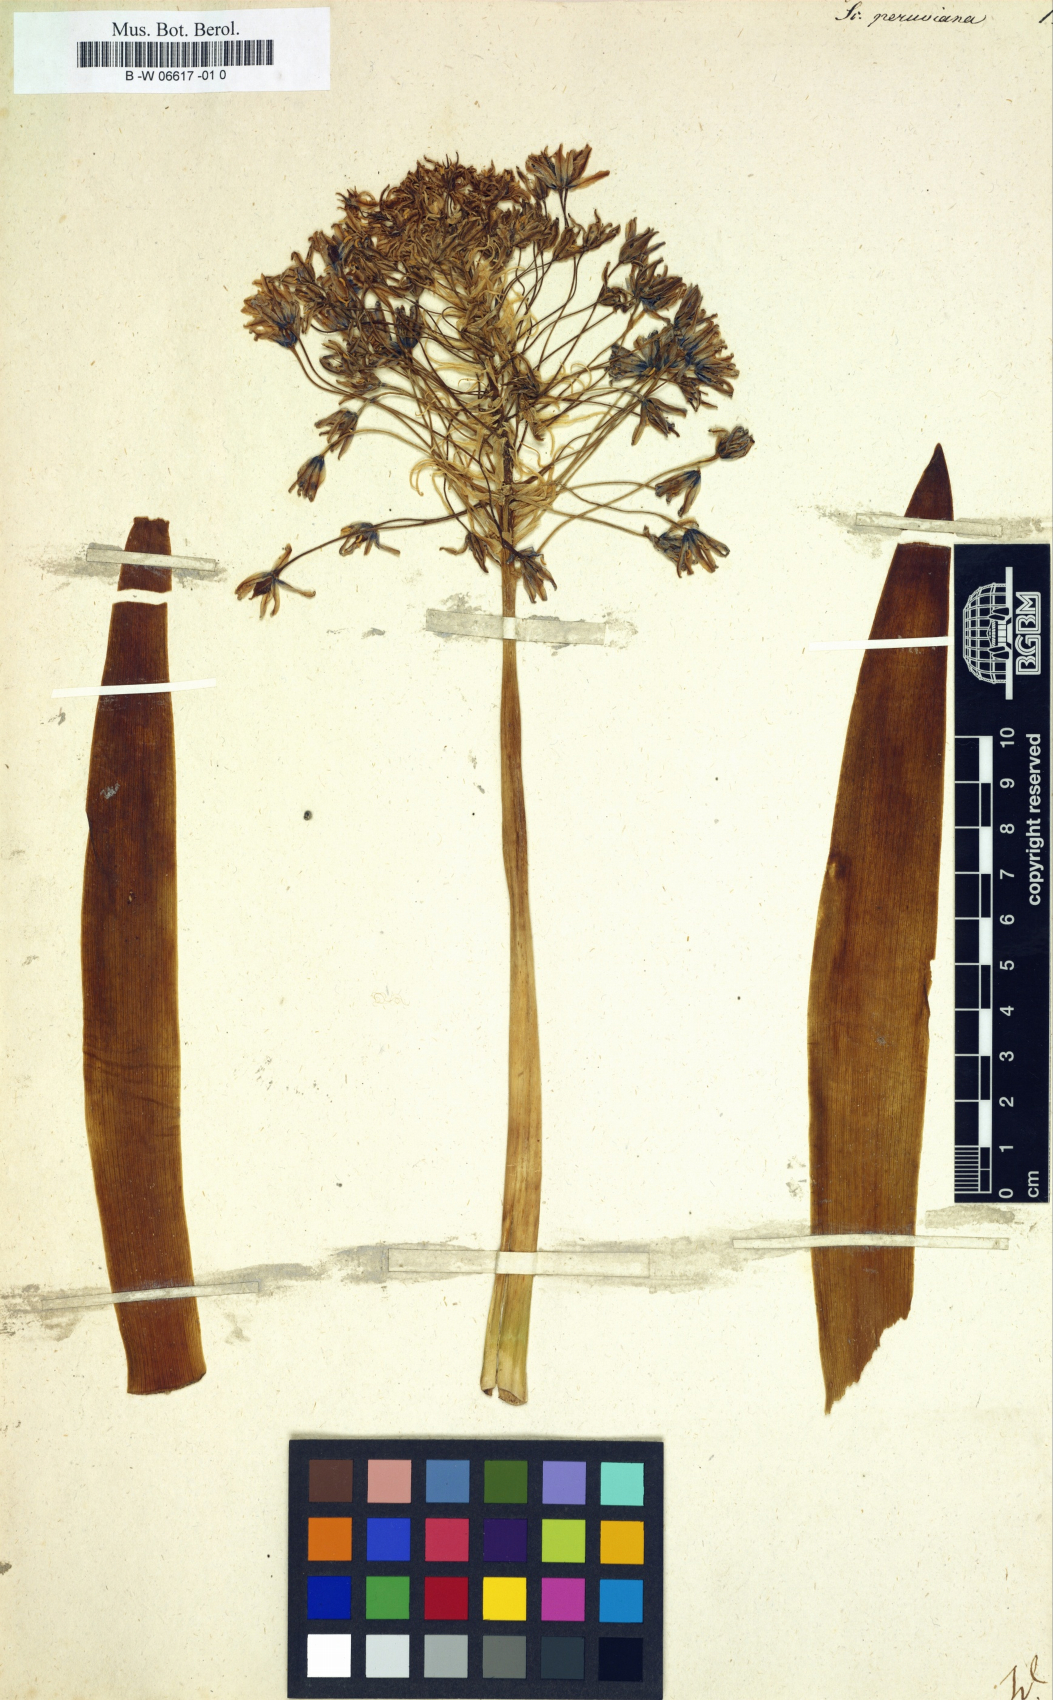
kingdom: Plantae
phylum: Tracheophyta
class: Liliopsida
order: Asparagales
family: Asparagaceae
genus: Scilla
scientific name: Scilla peruviana
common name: Portuguese squill
